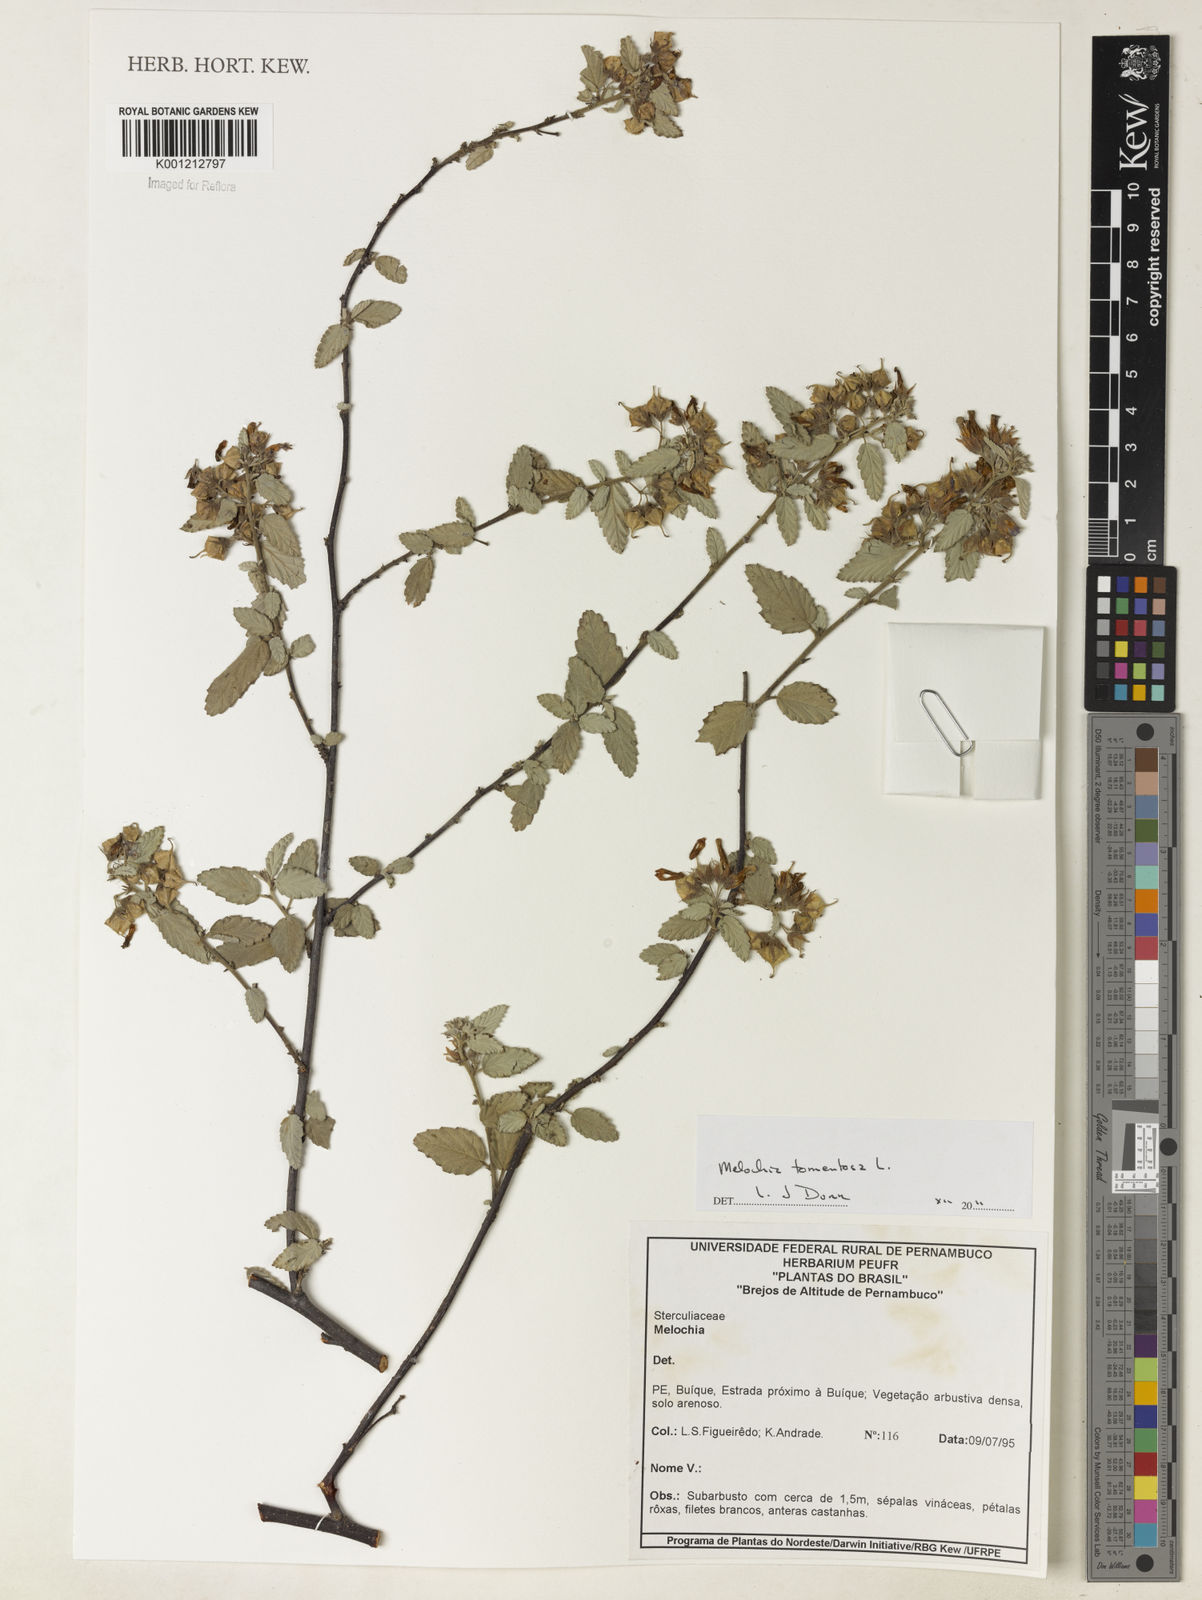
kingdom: Plantae
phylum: Tracheophyta
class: Magnoliopsida
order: Malvales
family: Malvaceae
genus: Melochia
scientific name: Melochia tomentosa
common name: Black torch
